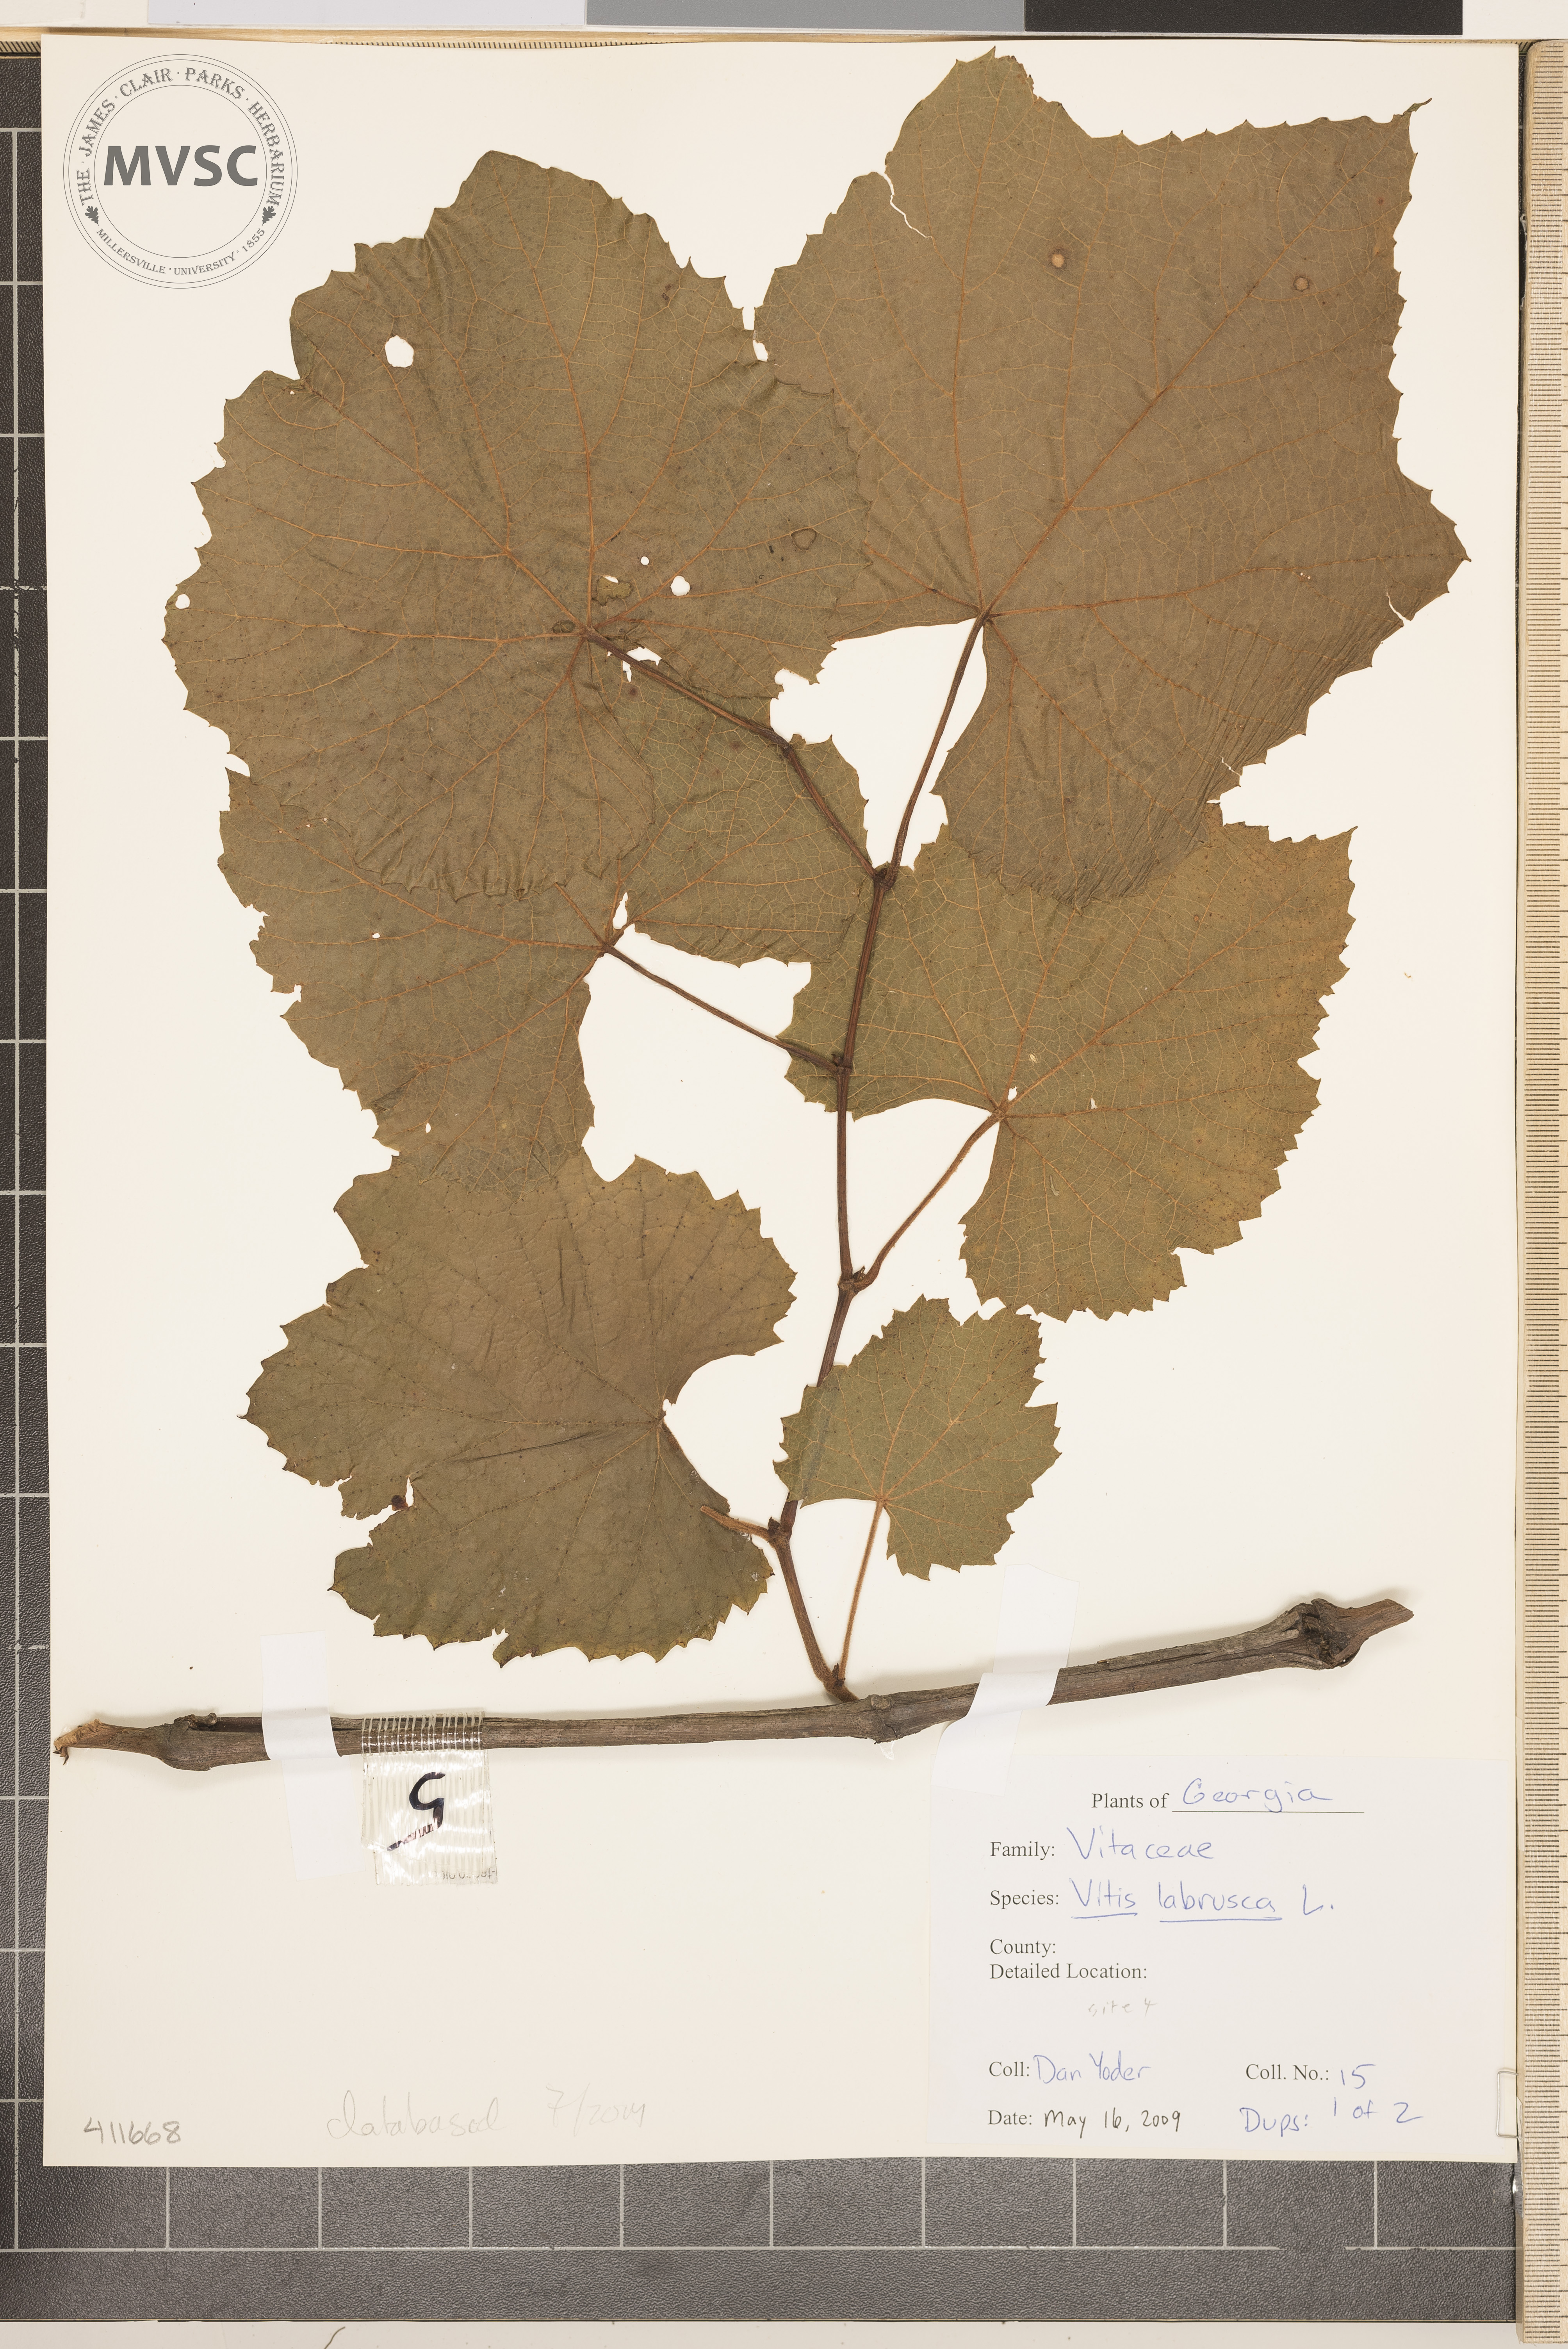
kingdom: Plantae
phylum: Tracheophyta
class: Magnoliopsida
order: Vitales
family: Vitaceae
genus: Vitis
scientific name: Vitis labrusca
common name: Fox grape
